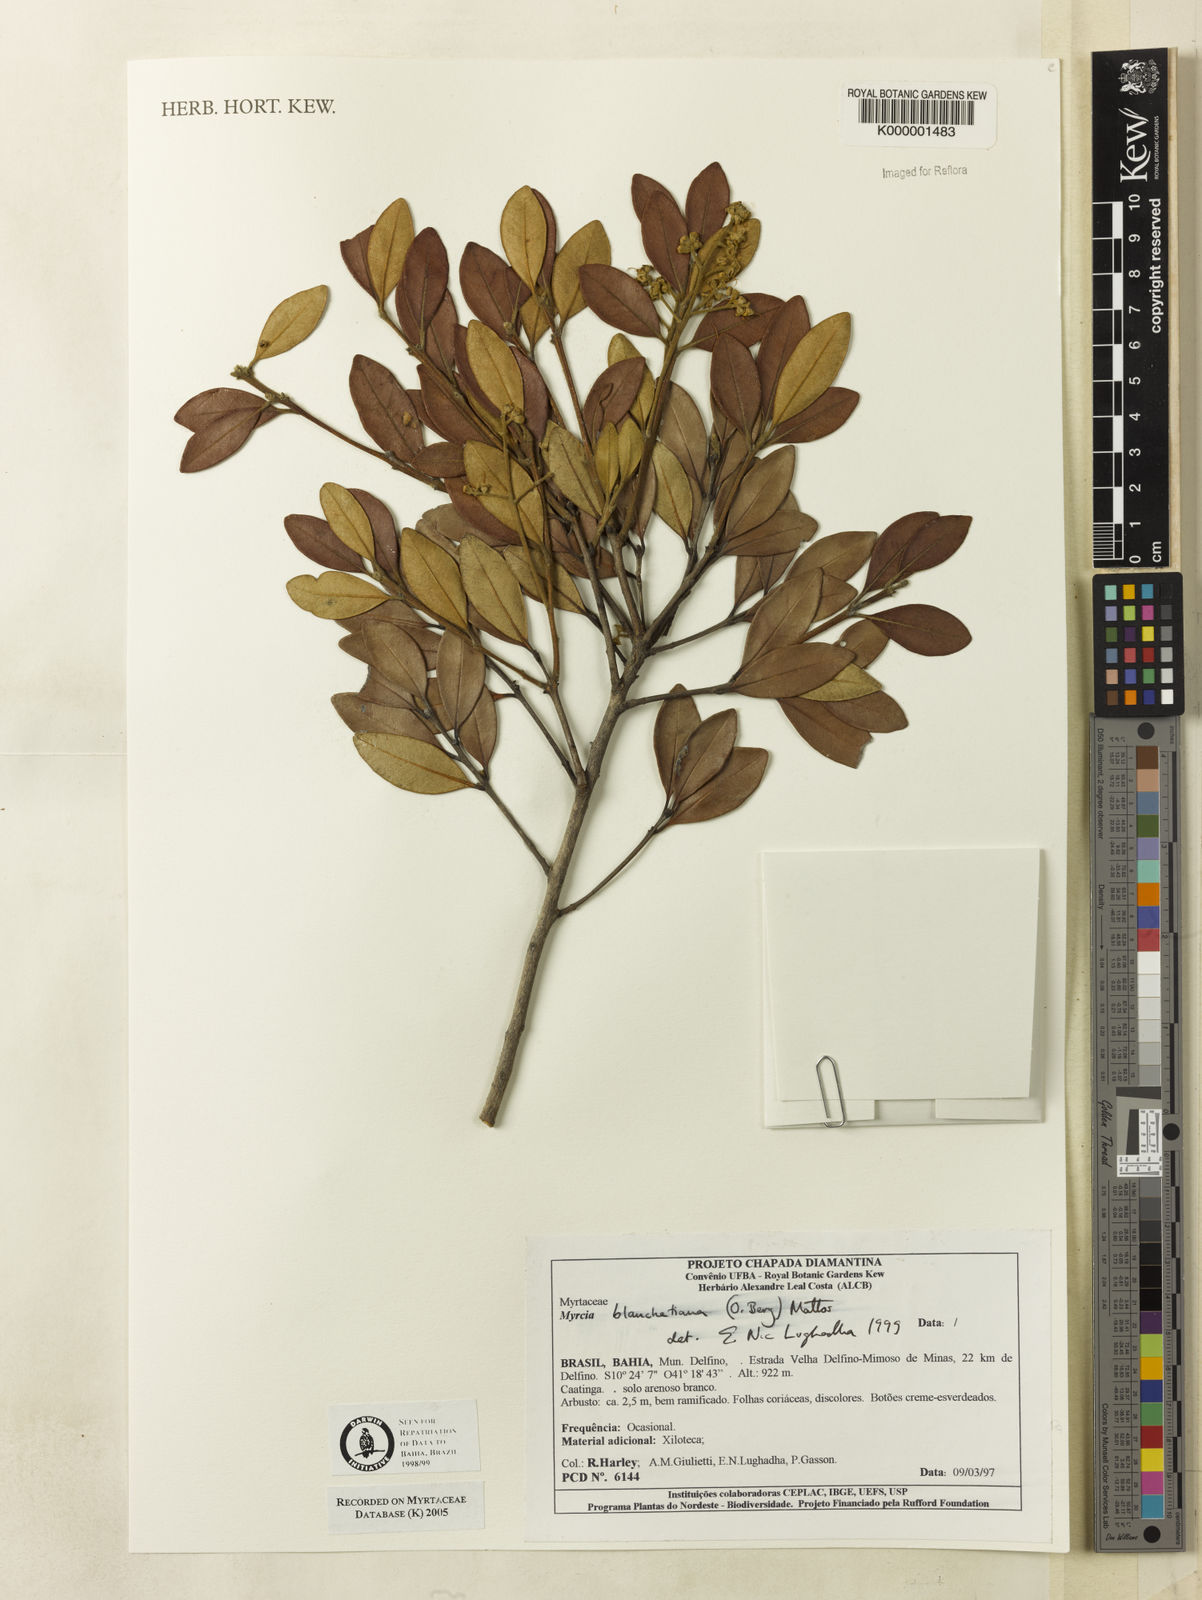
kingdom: Plantae
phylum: Tracheophyta
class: Magnoliopsida
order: Myrtales
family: Myrtaceae
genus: Myrcia
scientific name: Myrcia blanchetiana
